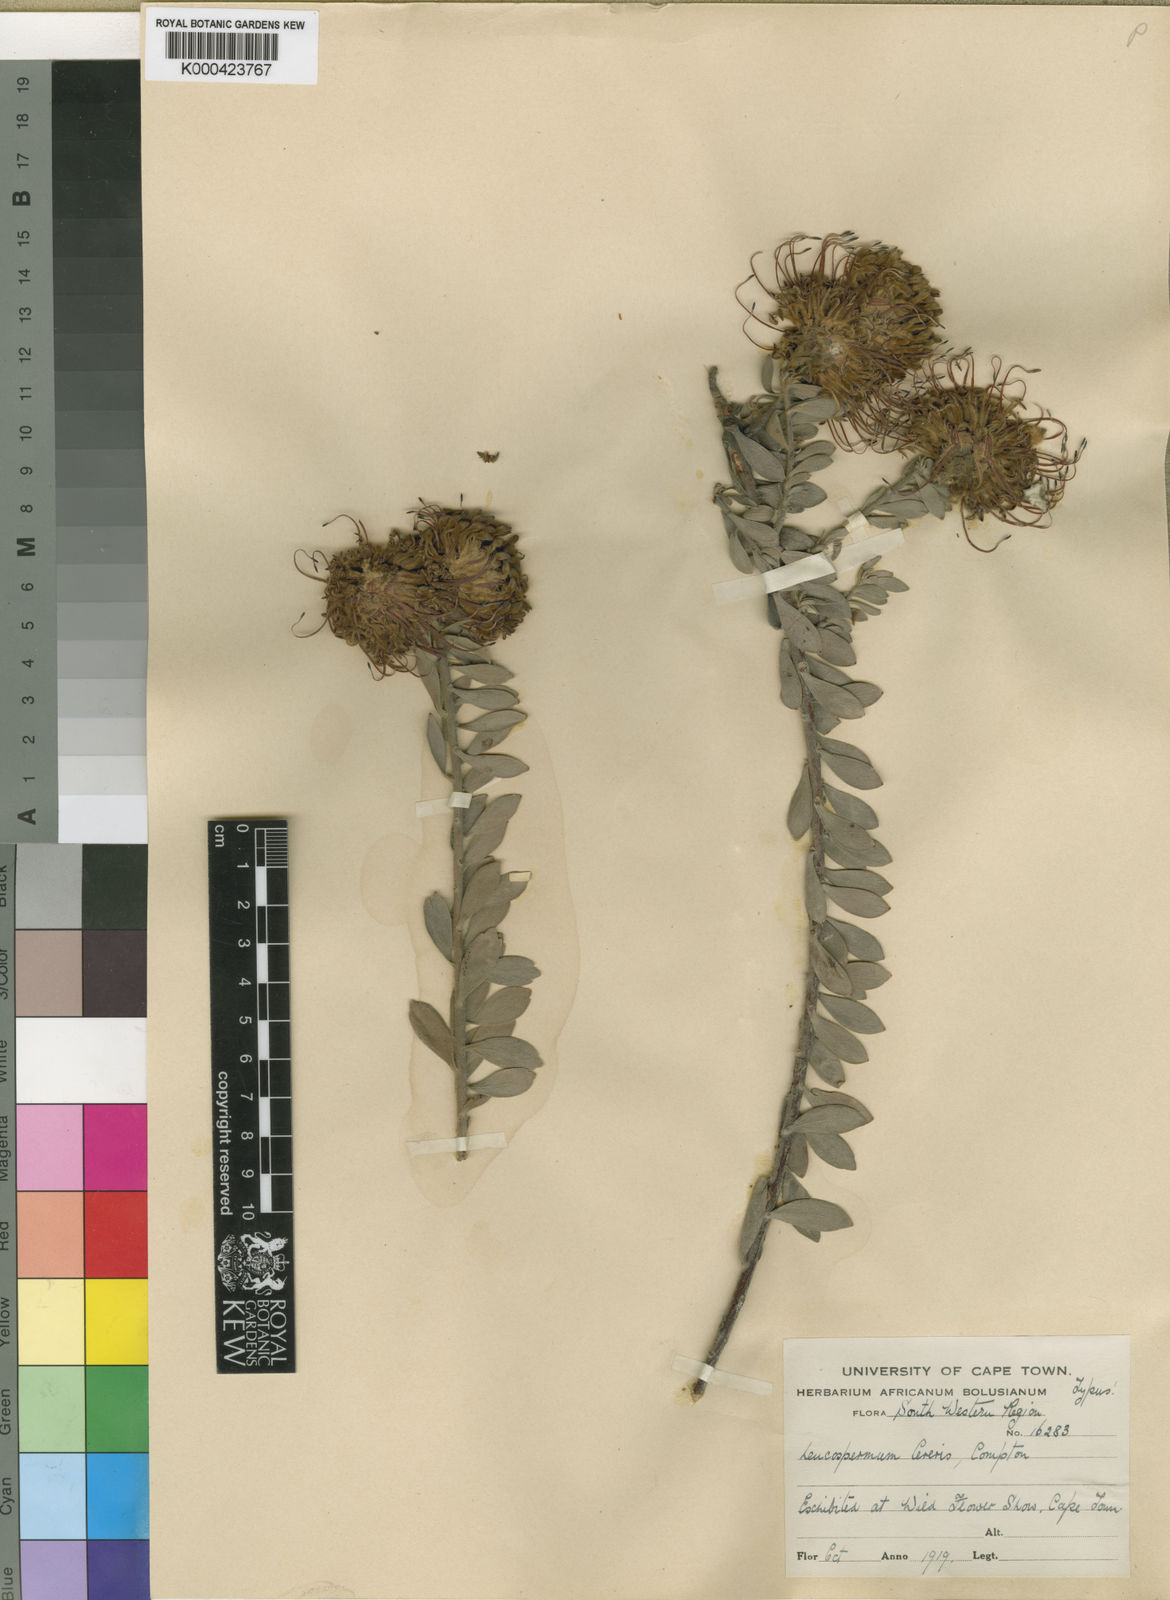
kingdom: Plantae
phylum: Tracheophyta
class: Magnoliopsida
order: Proteales
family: Proteaceae
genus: Leucospermum
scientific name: Leucospermum spathulatum
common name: Cederberg pincushion
